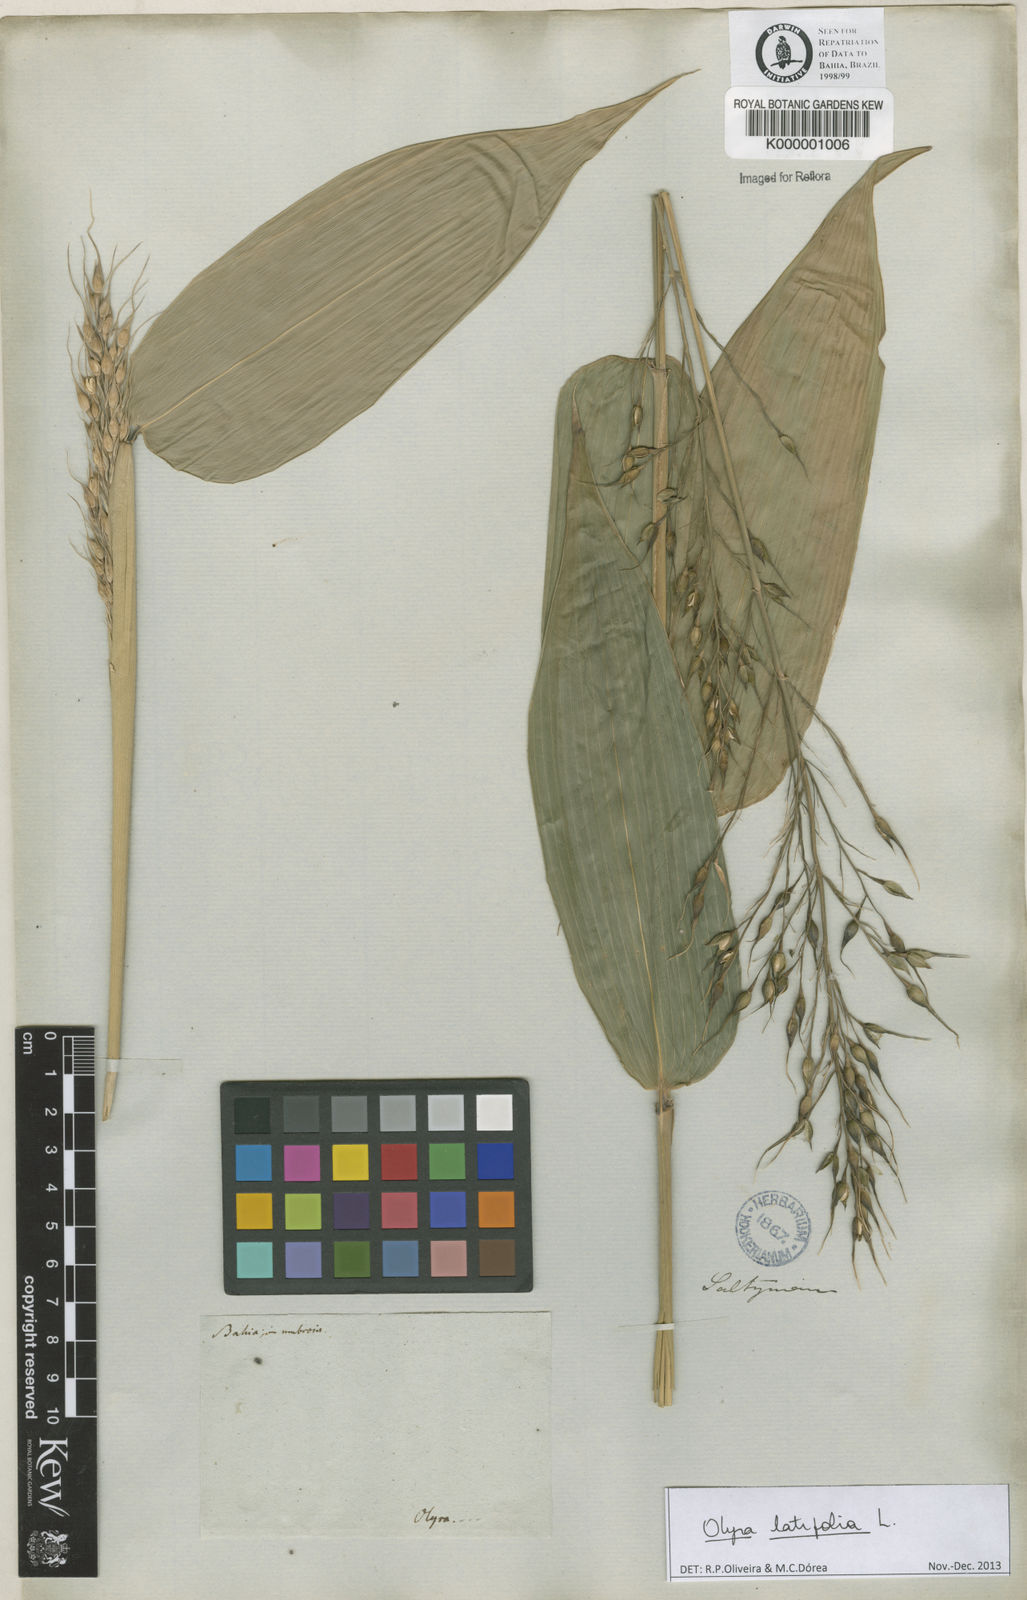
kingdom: Plantae
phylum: Tracheophyta
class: Liliopsida
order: Poales
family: Poaceae
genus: Olyra
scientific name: Olyra latifolia
